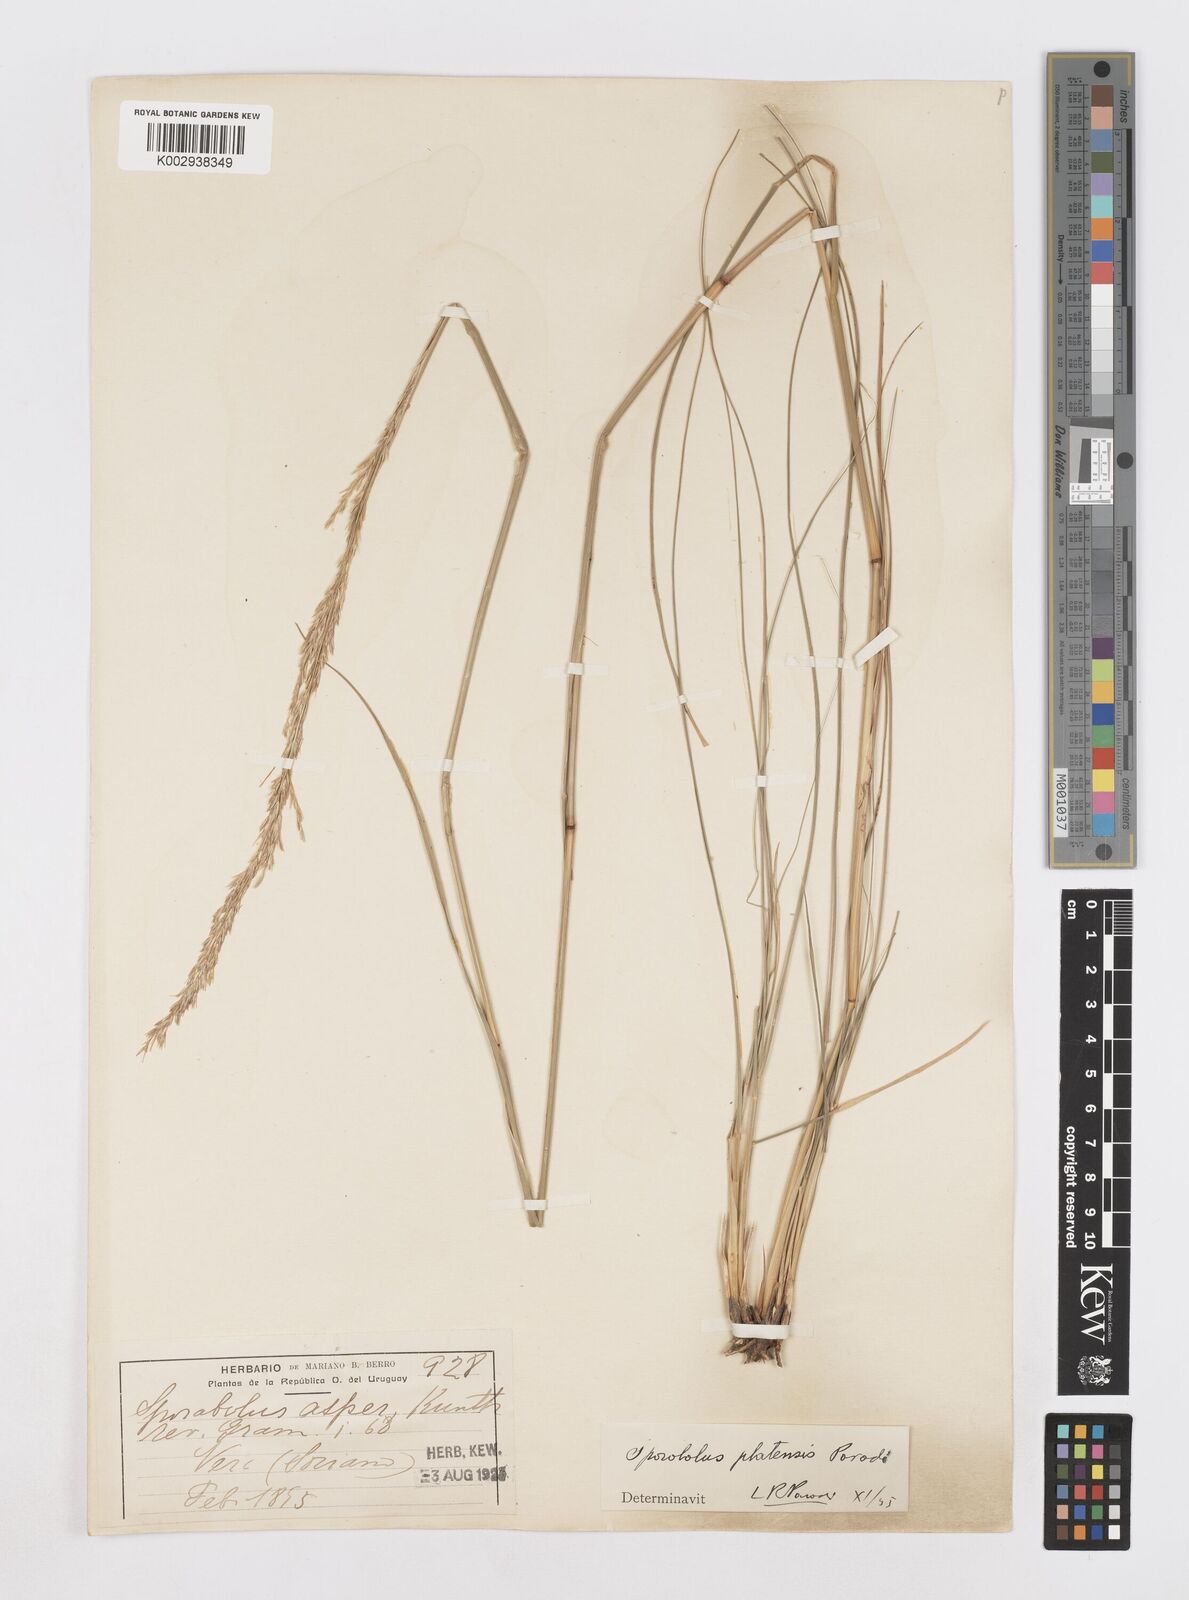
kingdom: Plantae
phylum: Tracheophyta
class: Liliopsida
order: Poales
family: Poaceae
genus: Sporobolus
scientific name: Sporobolus platensis
